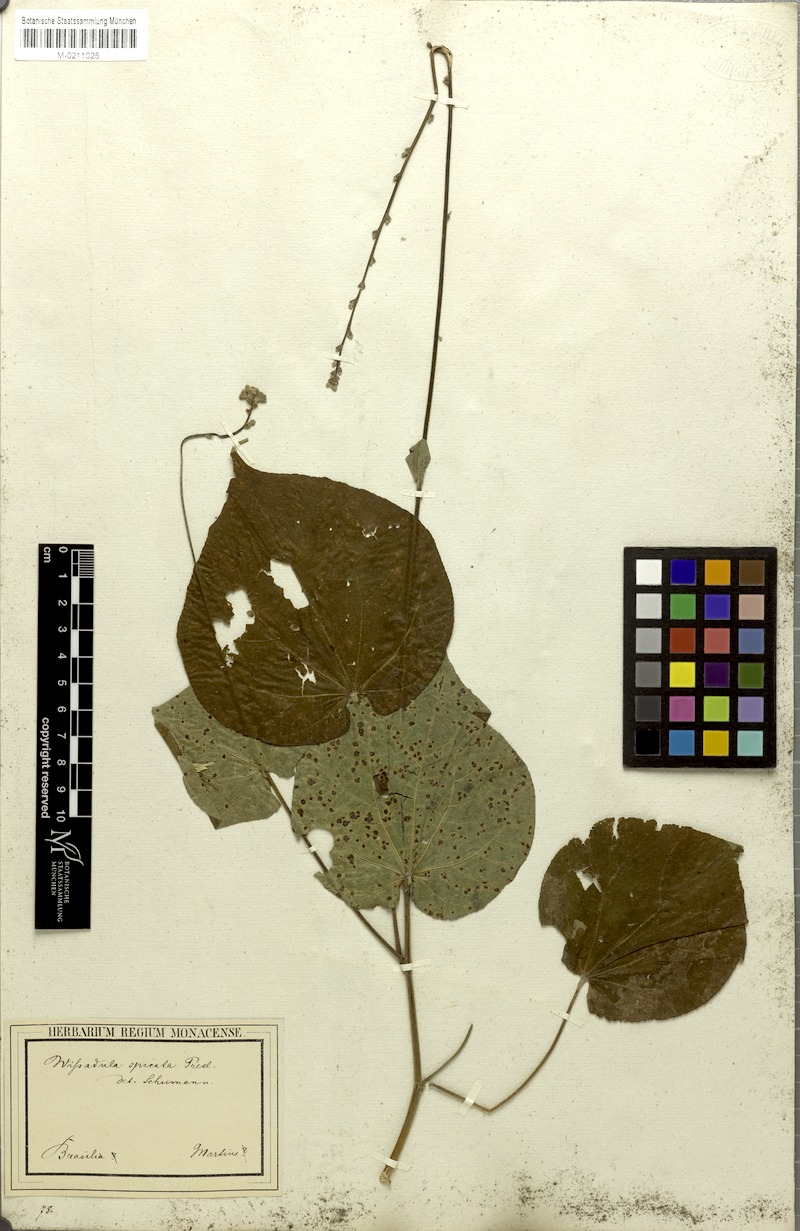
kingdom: Plantae
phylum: Tracheophyta
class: Magnoliopsida
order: Malvales
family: Malvaceae
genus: Allobriquetia
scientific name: Allobriquetia spicata
